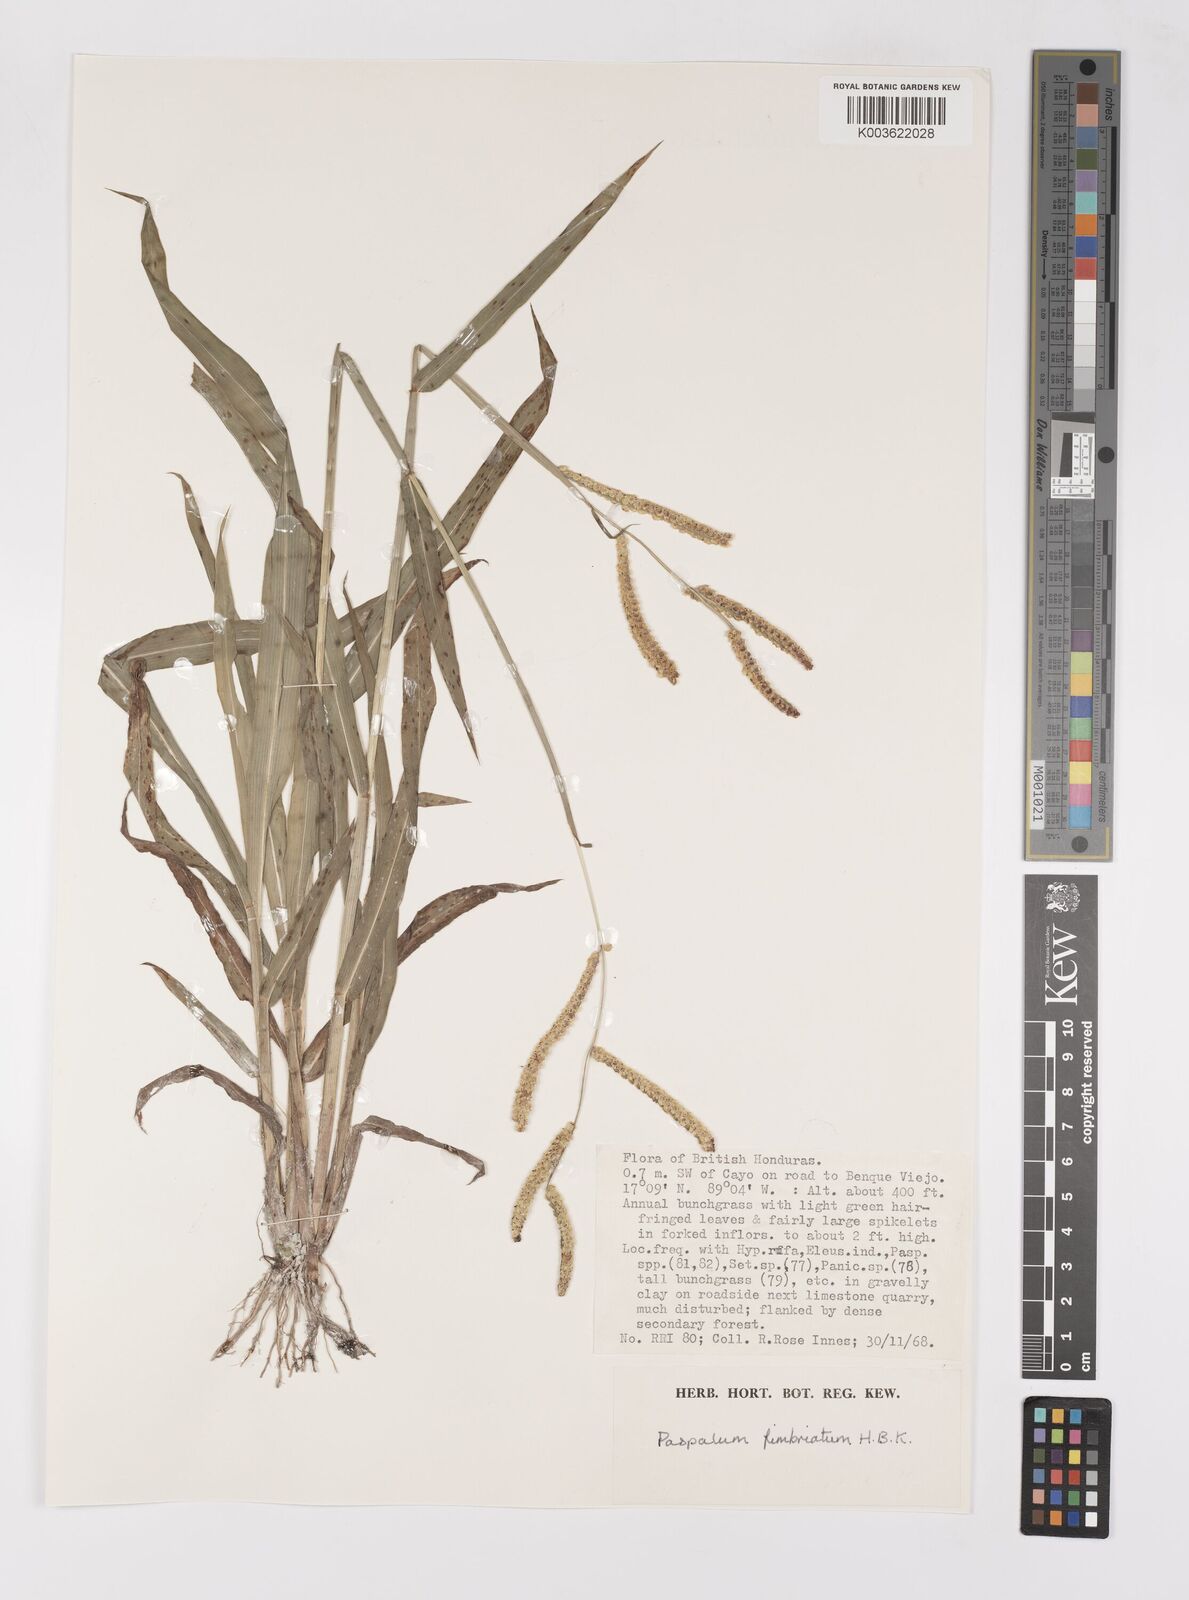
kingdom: Plantae
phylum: Tracheophyta
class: Liliopsida
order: Poales
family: Poaceae
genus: Paspalum
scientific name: Paspalum fimbriatum
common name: Panama crowngrass
